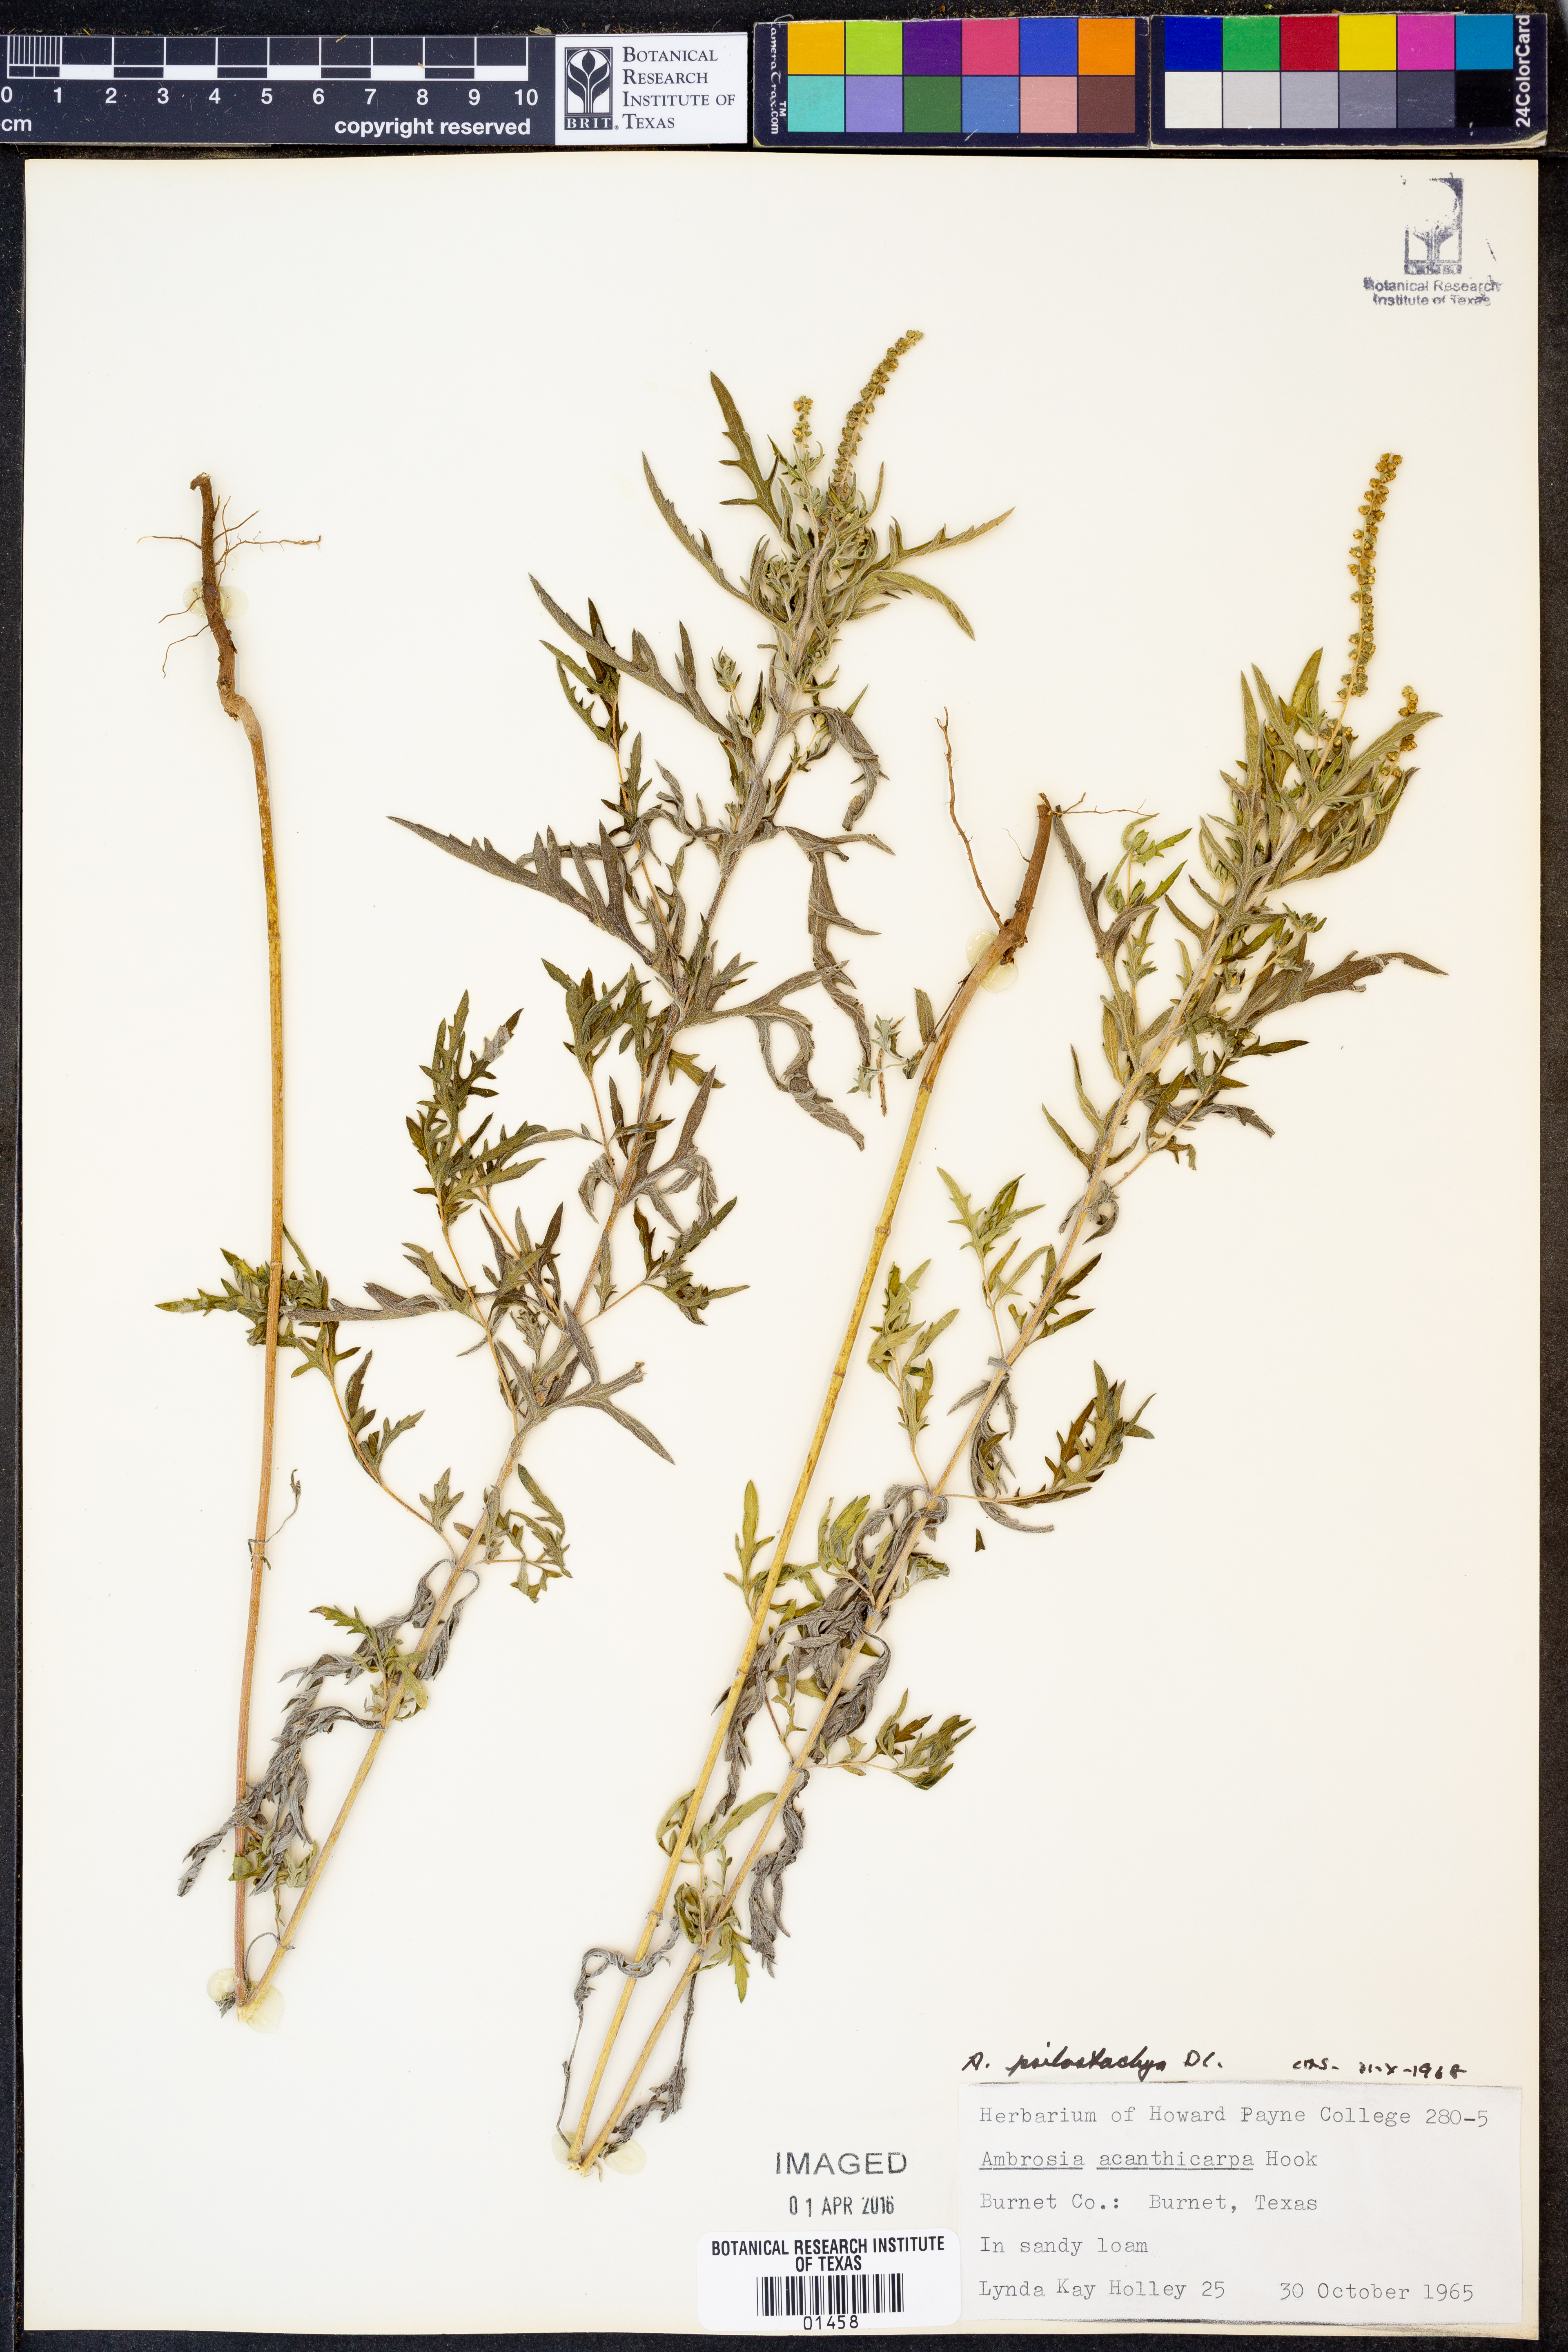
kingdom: Plantae
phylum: Tracheophyta
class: Magnoliopsida
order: Asterales
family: Asteraceae
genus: Ambrosia
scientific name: Ambrosia psilostachya
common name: Perennial ragweed
